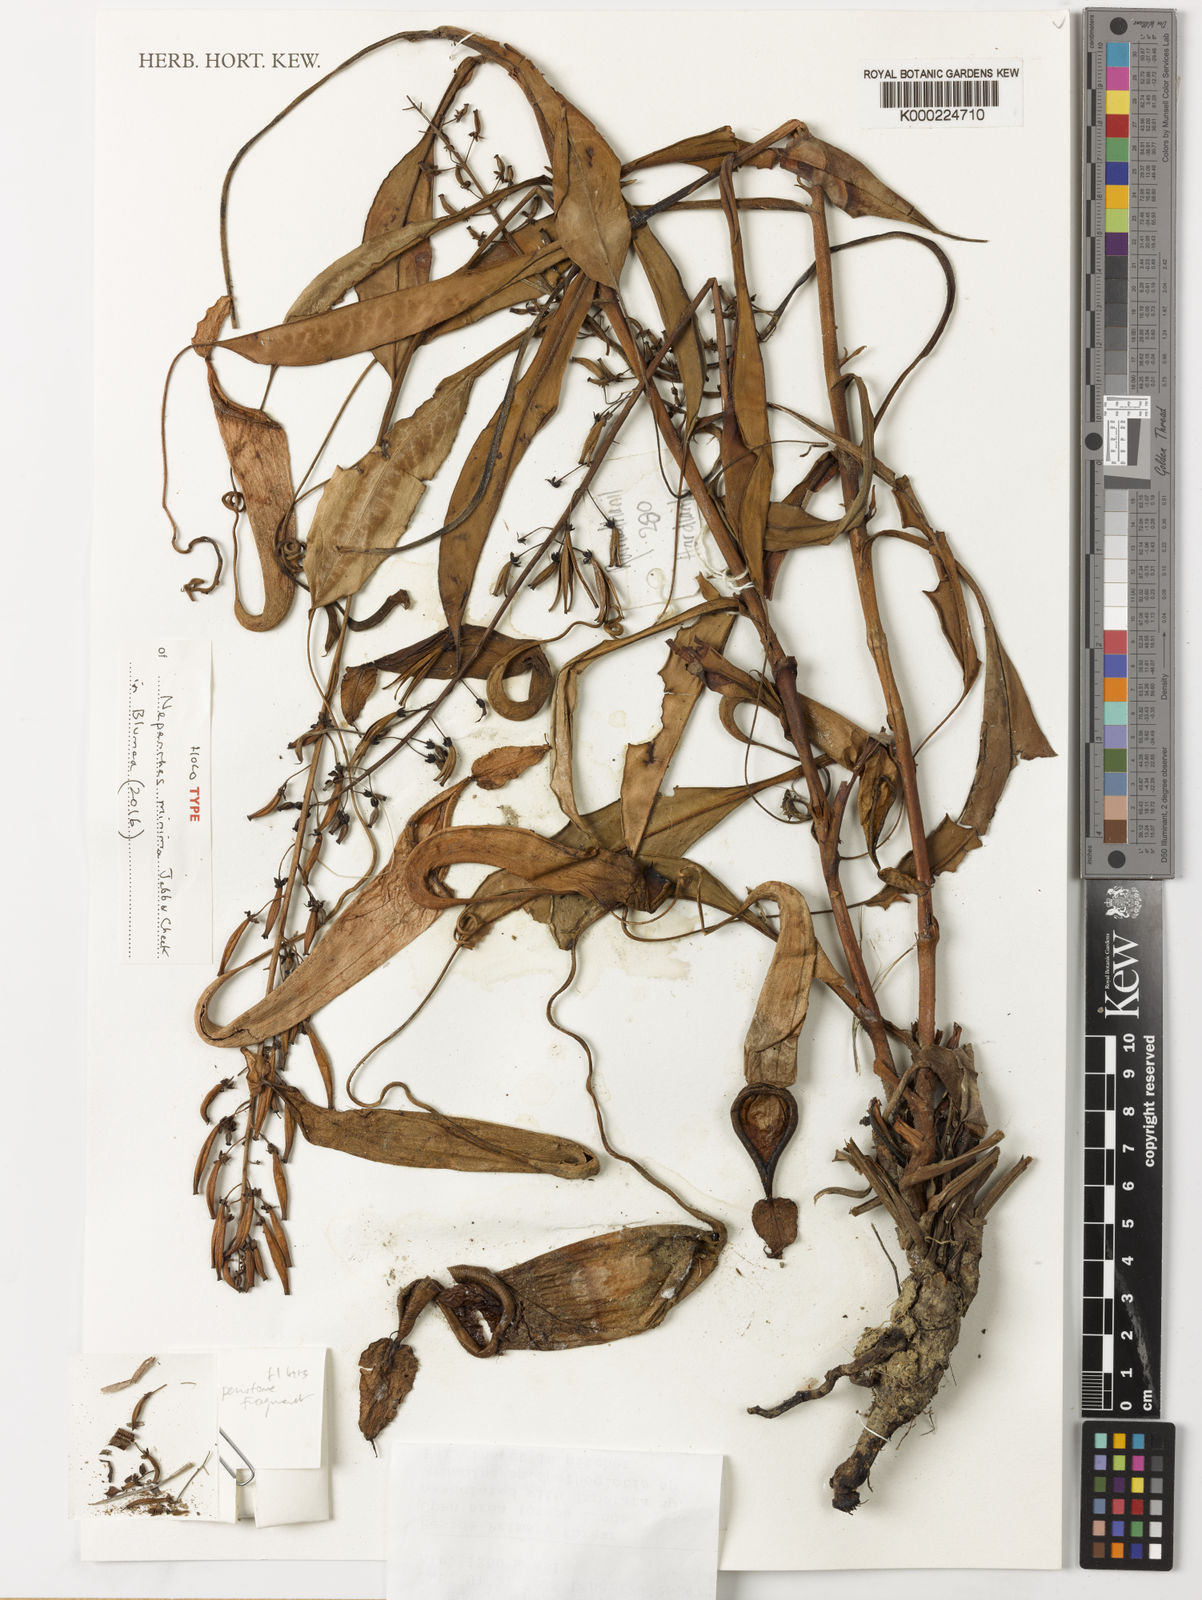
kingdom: Plantae
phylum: Tracheophyta
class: Magnoliopsida
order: Caryophyllales
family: Nepenthaceae
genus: Nepenthes
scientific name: Nepenthes minima
